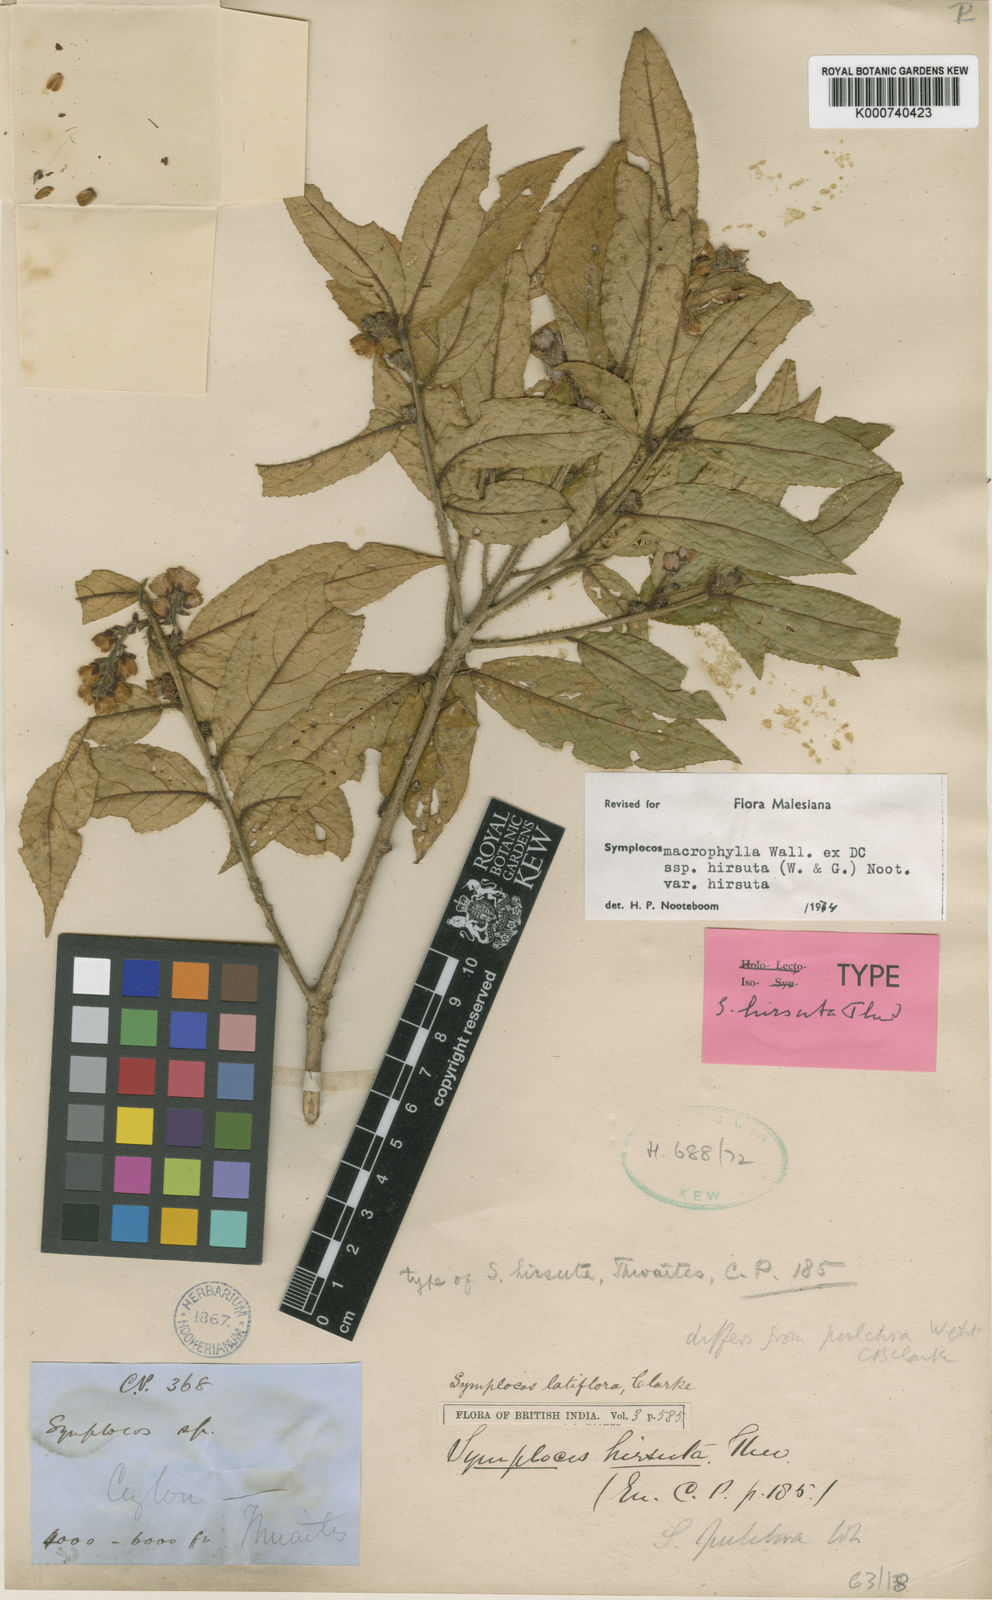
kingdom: Plantae
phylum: Tracheophyta
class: Magnoliopsida
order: Ericales
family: Symplocaceae
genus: Symplocos
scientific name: Symplocos macrophylla
